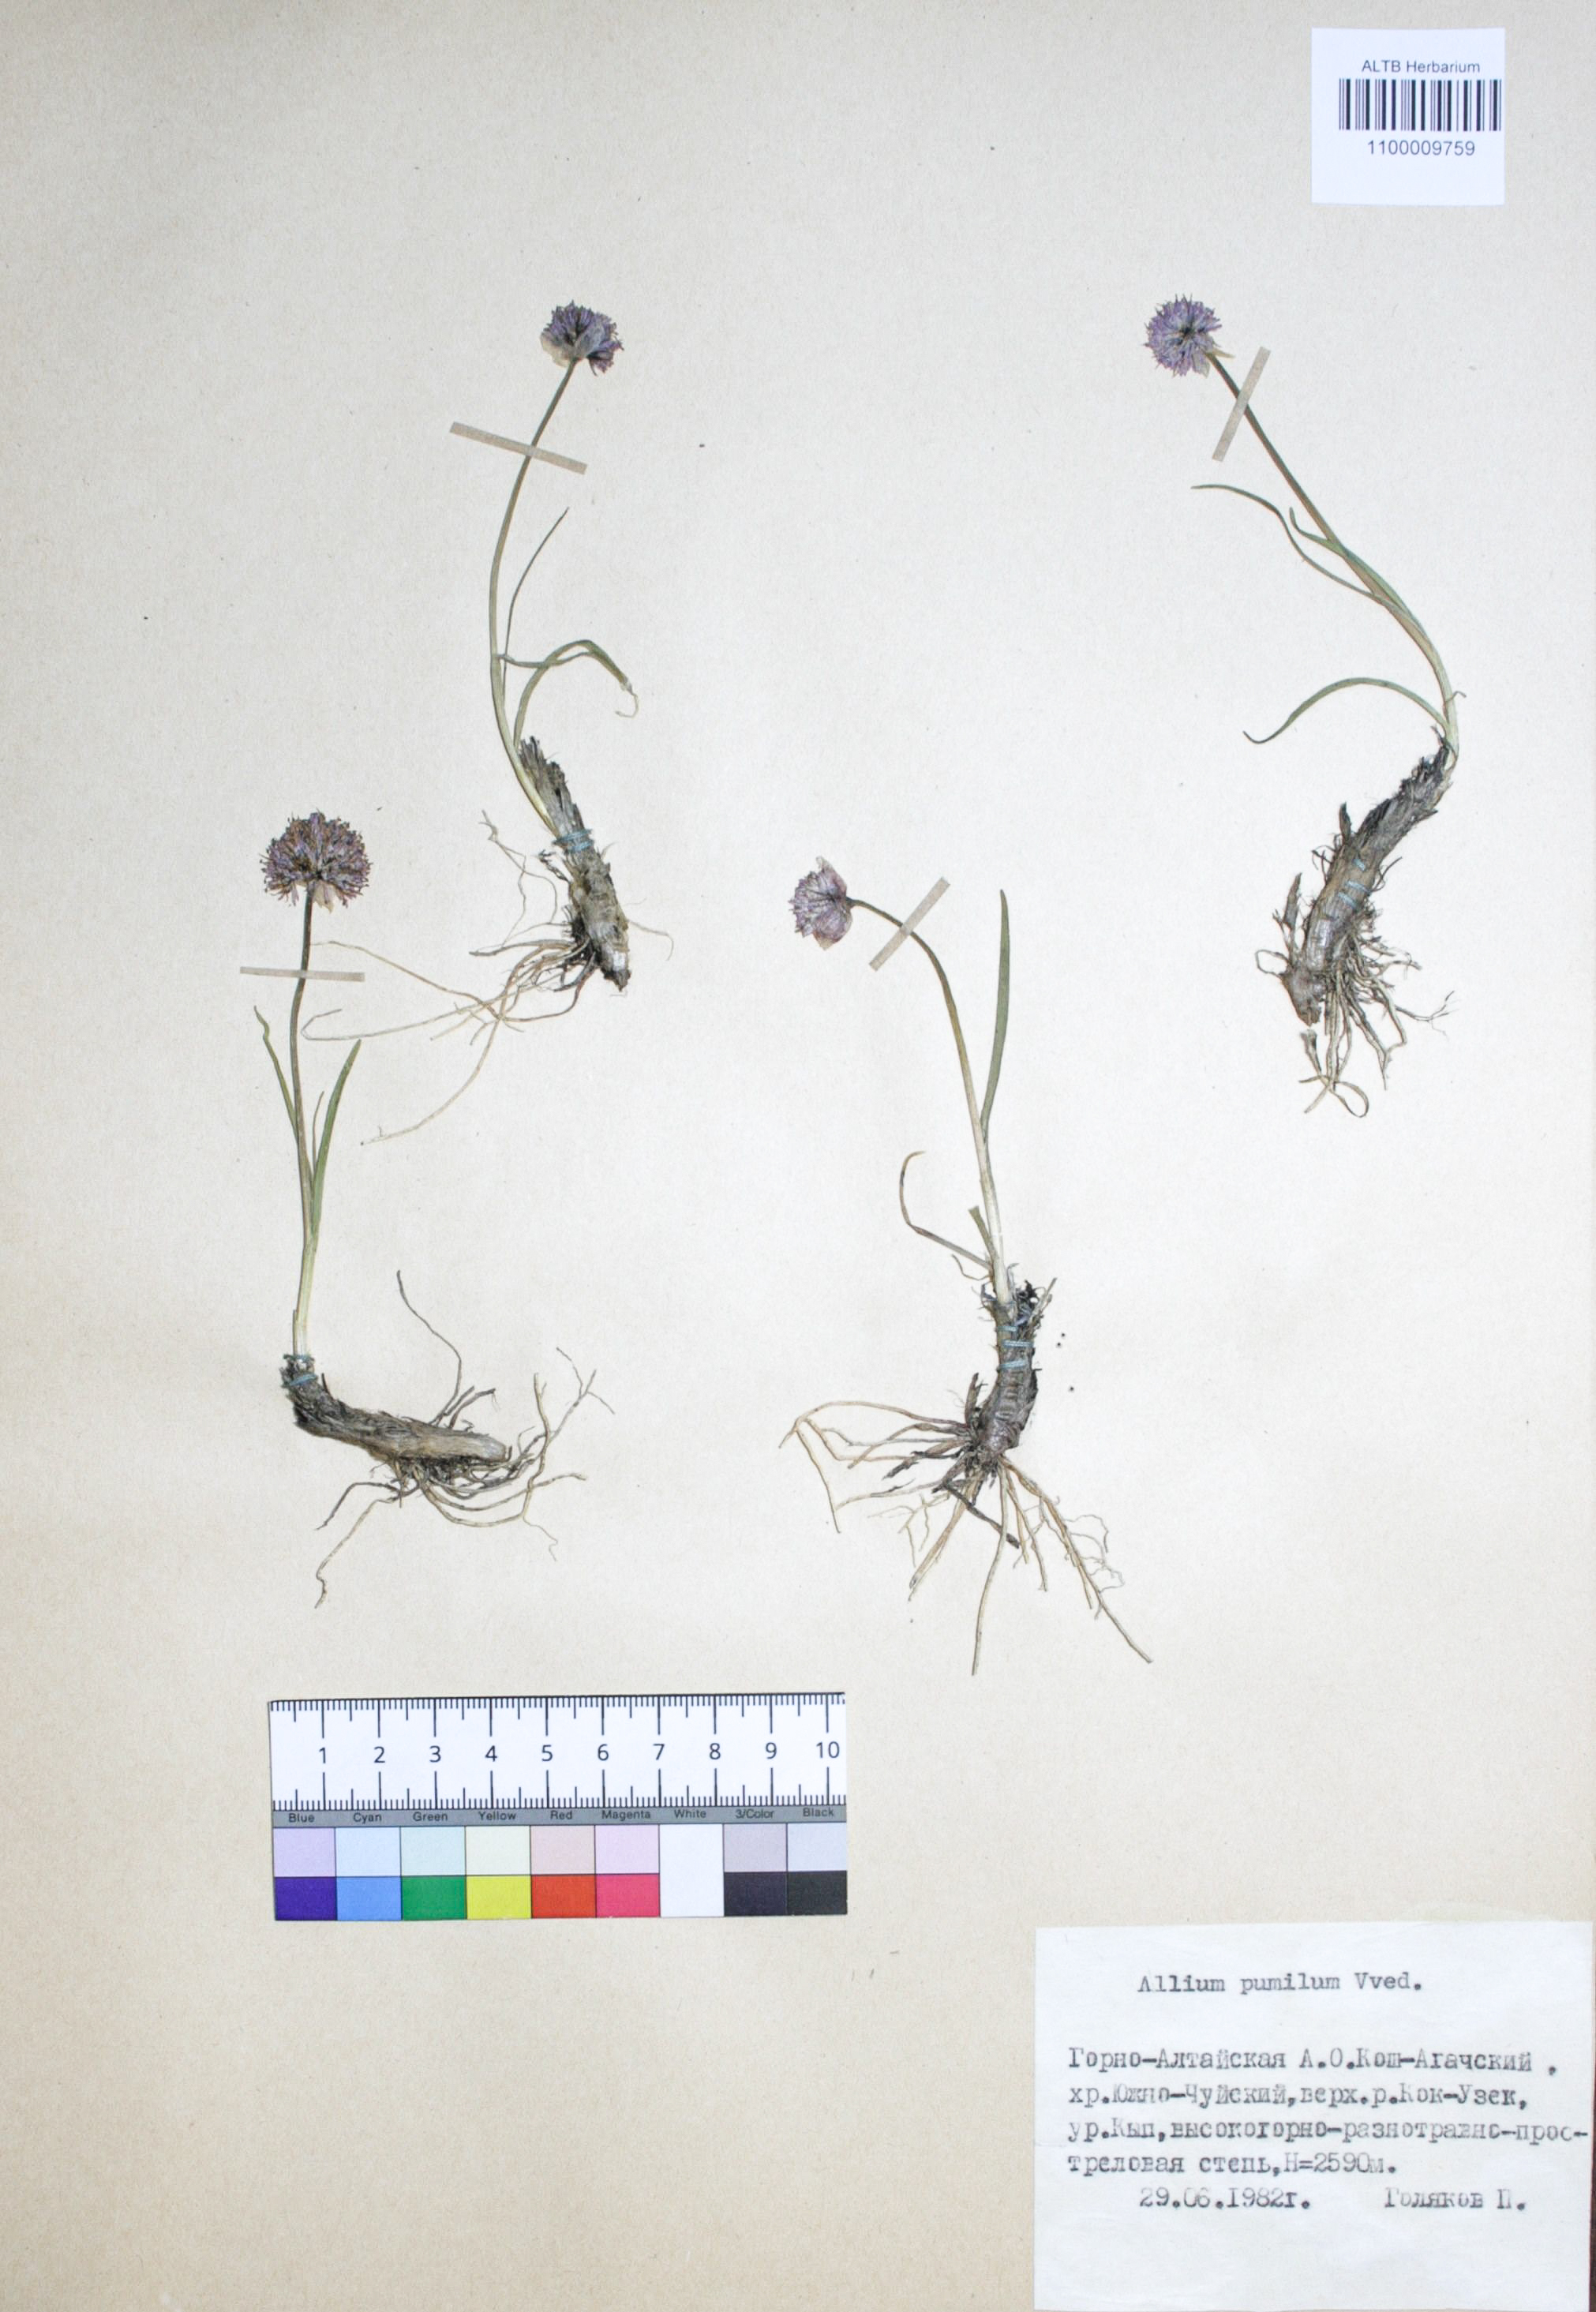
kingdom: Plantae
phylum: Tracheophyta
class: Liliopsida
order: Asparagales
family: Amaryllidaceae
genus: Allium
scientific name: Allium pumilum
